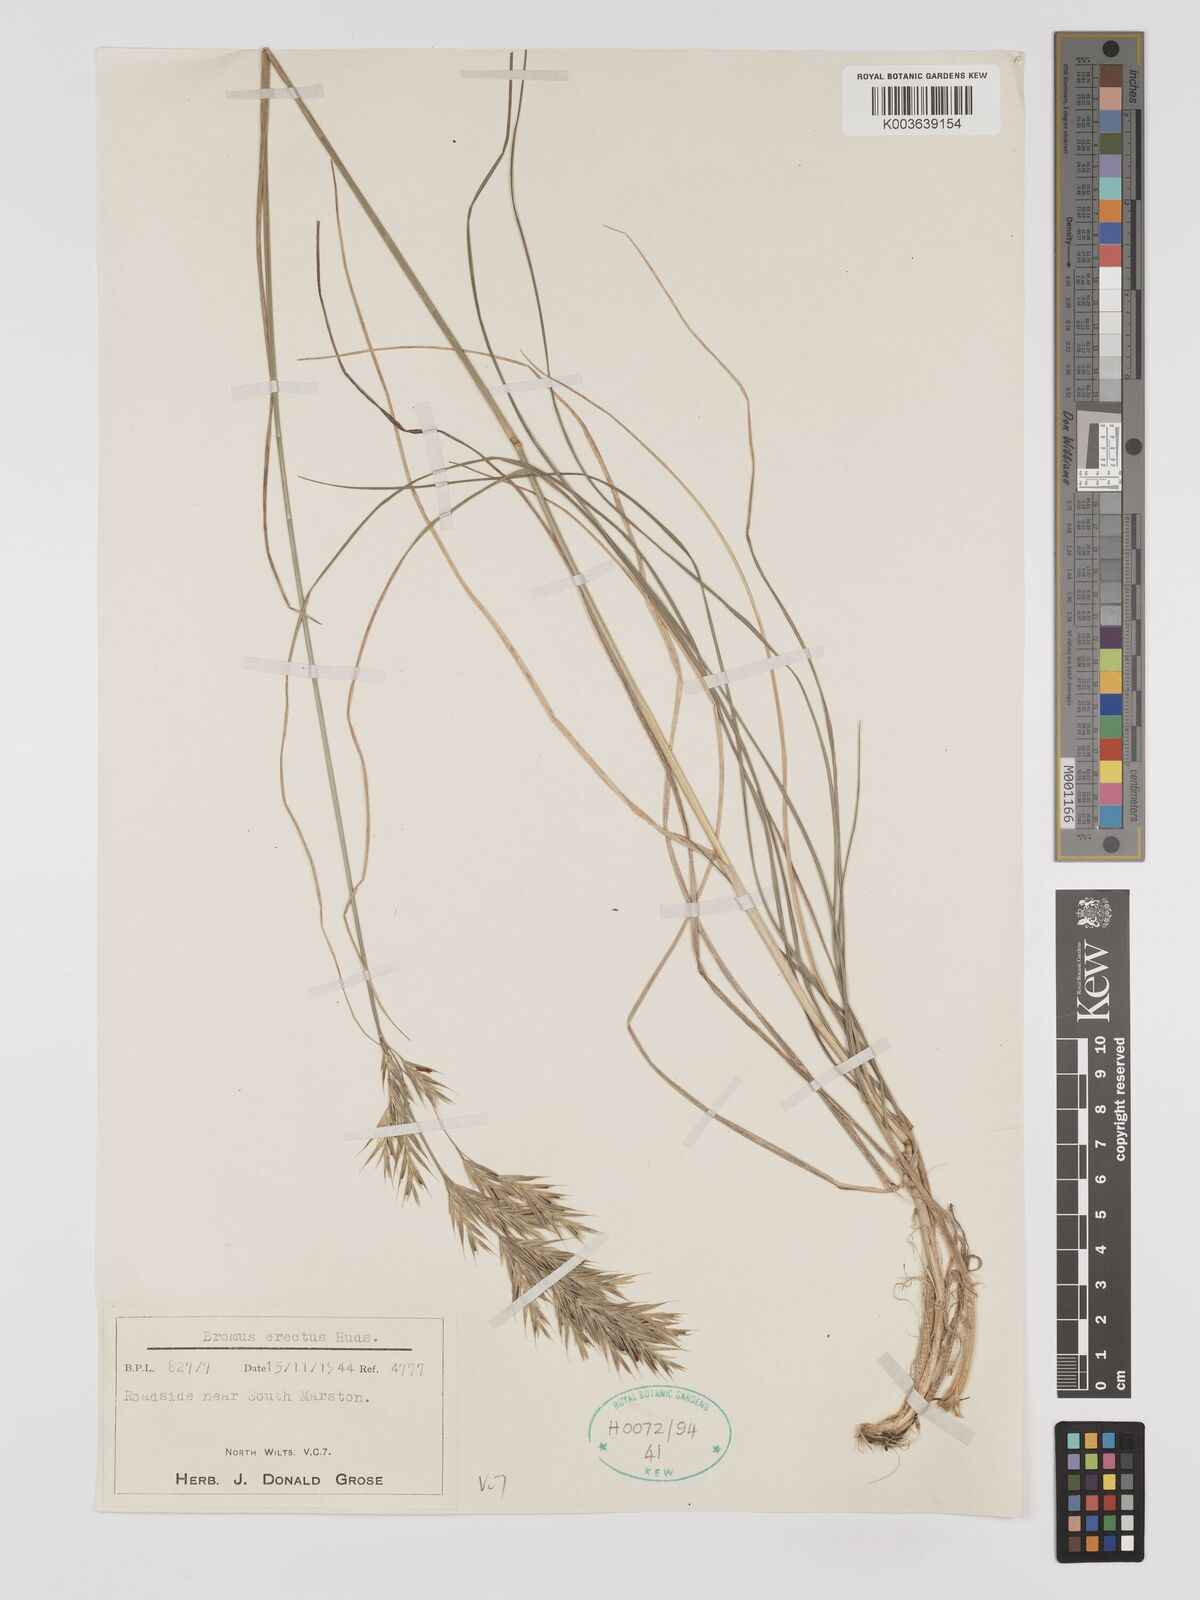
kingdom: Plantae
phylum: Tracheophyta
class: Liliopsida
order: Poales
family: Poaceae
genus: Bromus
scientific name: Bromus erectus
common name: Erect brome
